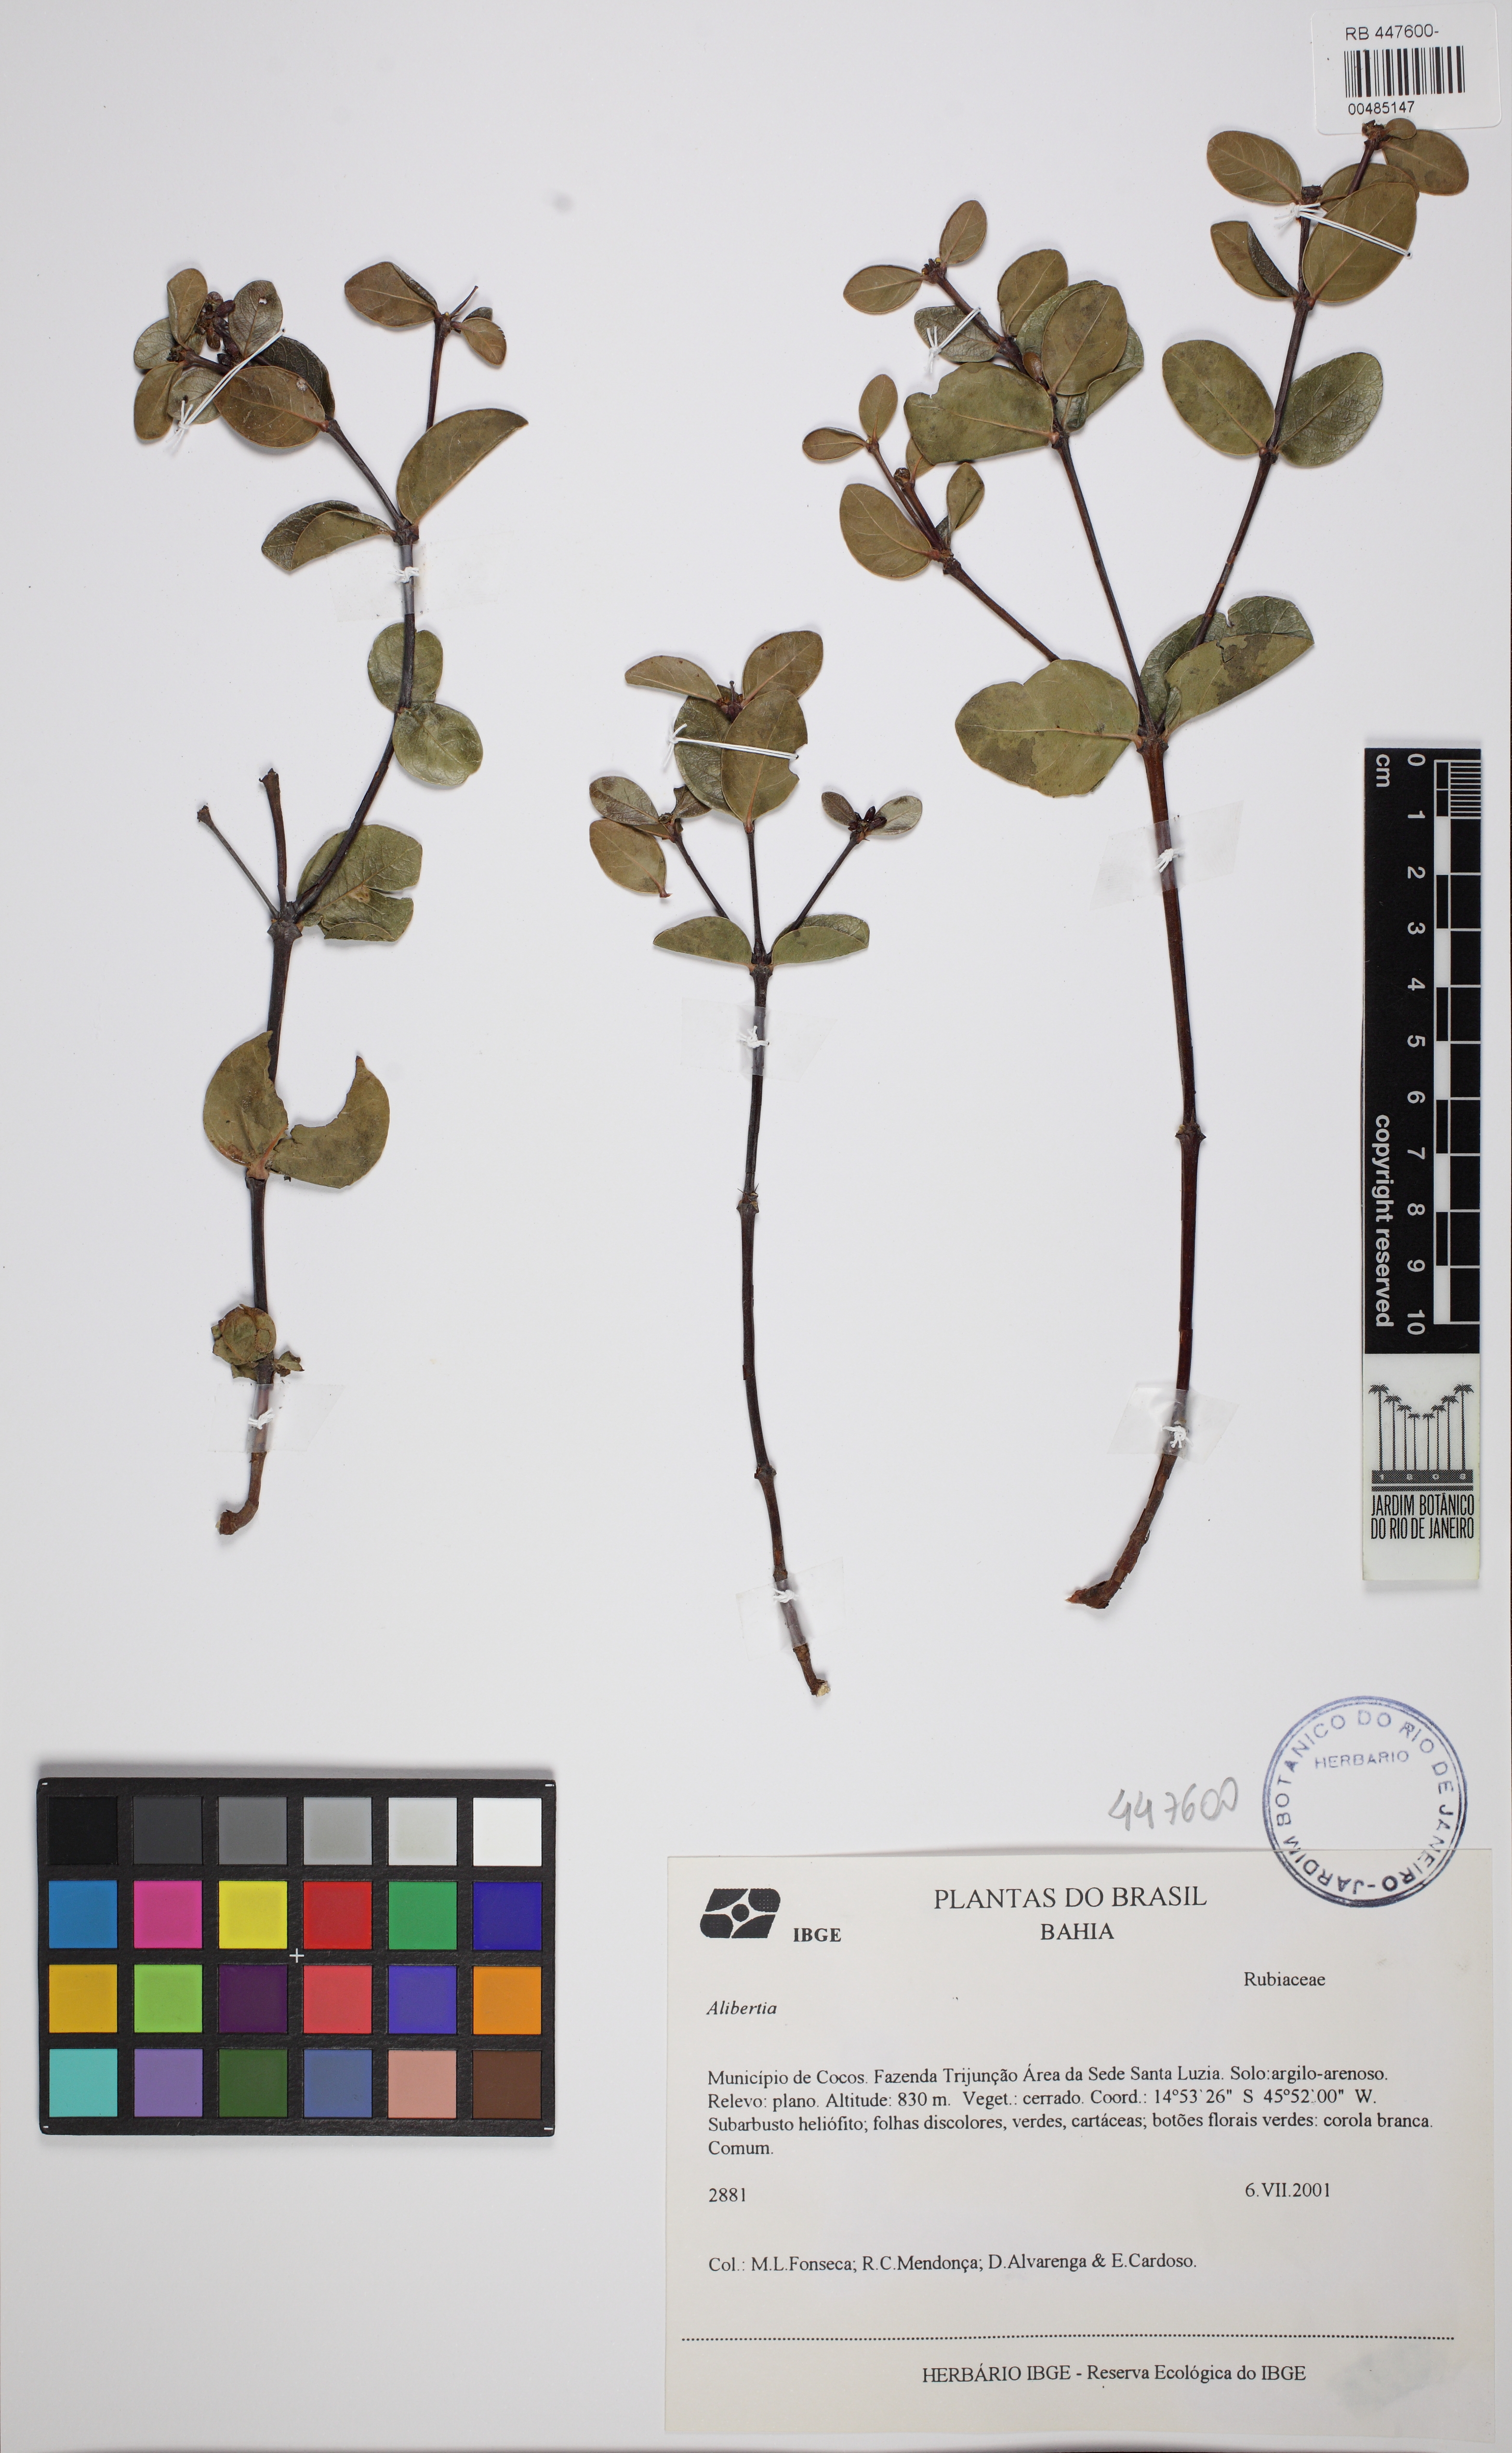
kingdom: Plantae
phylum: Tracheophyta
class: Magnoliopsida
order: Gentianales
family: Rubiaceae
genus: Cordiera
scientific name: Cordiera rigida
